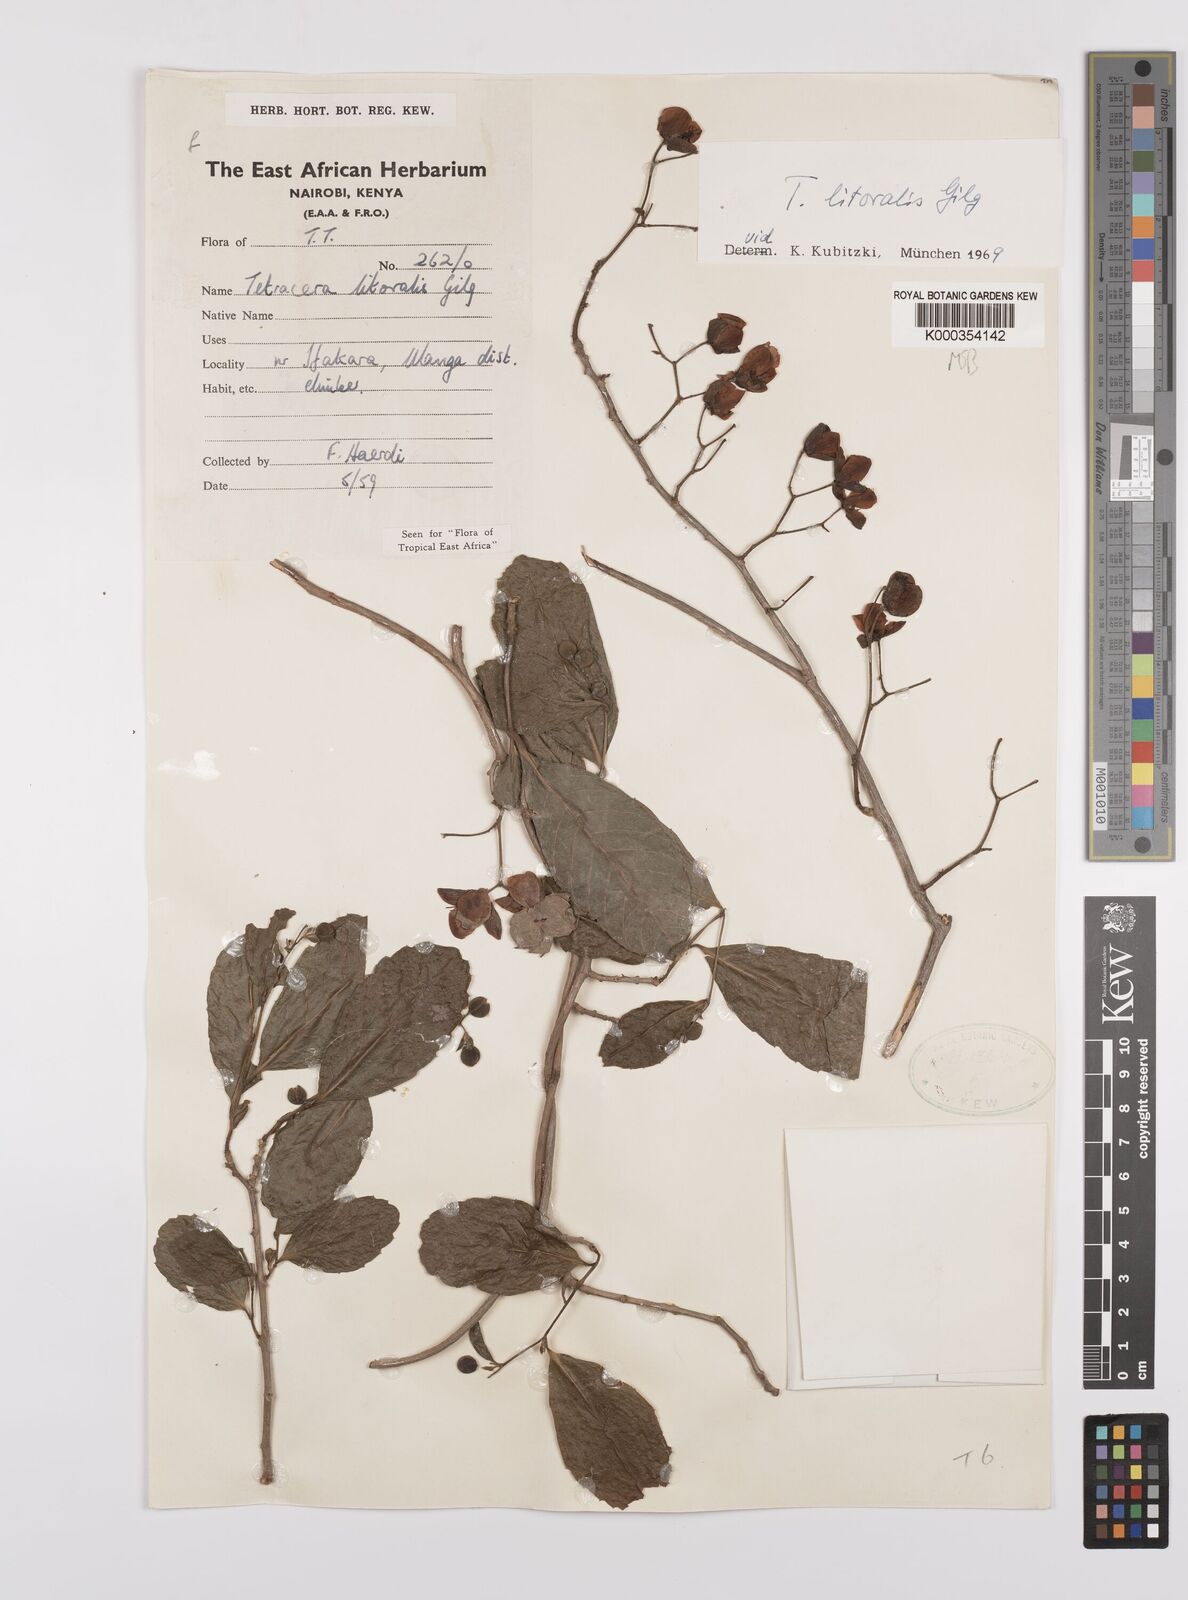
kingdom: Plantae
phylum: Tracheophyta
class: Magnoliopsida
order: Dilleniales
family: Dilleniaceae
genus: Tetracera
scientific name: Tetracera litoralis
